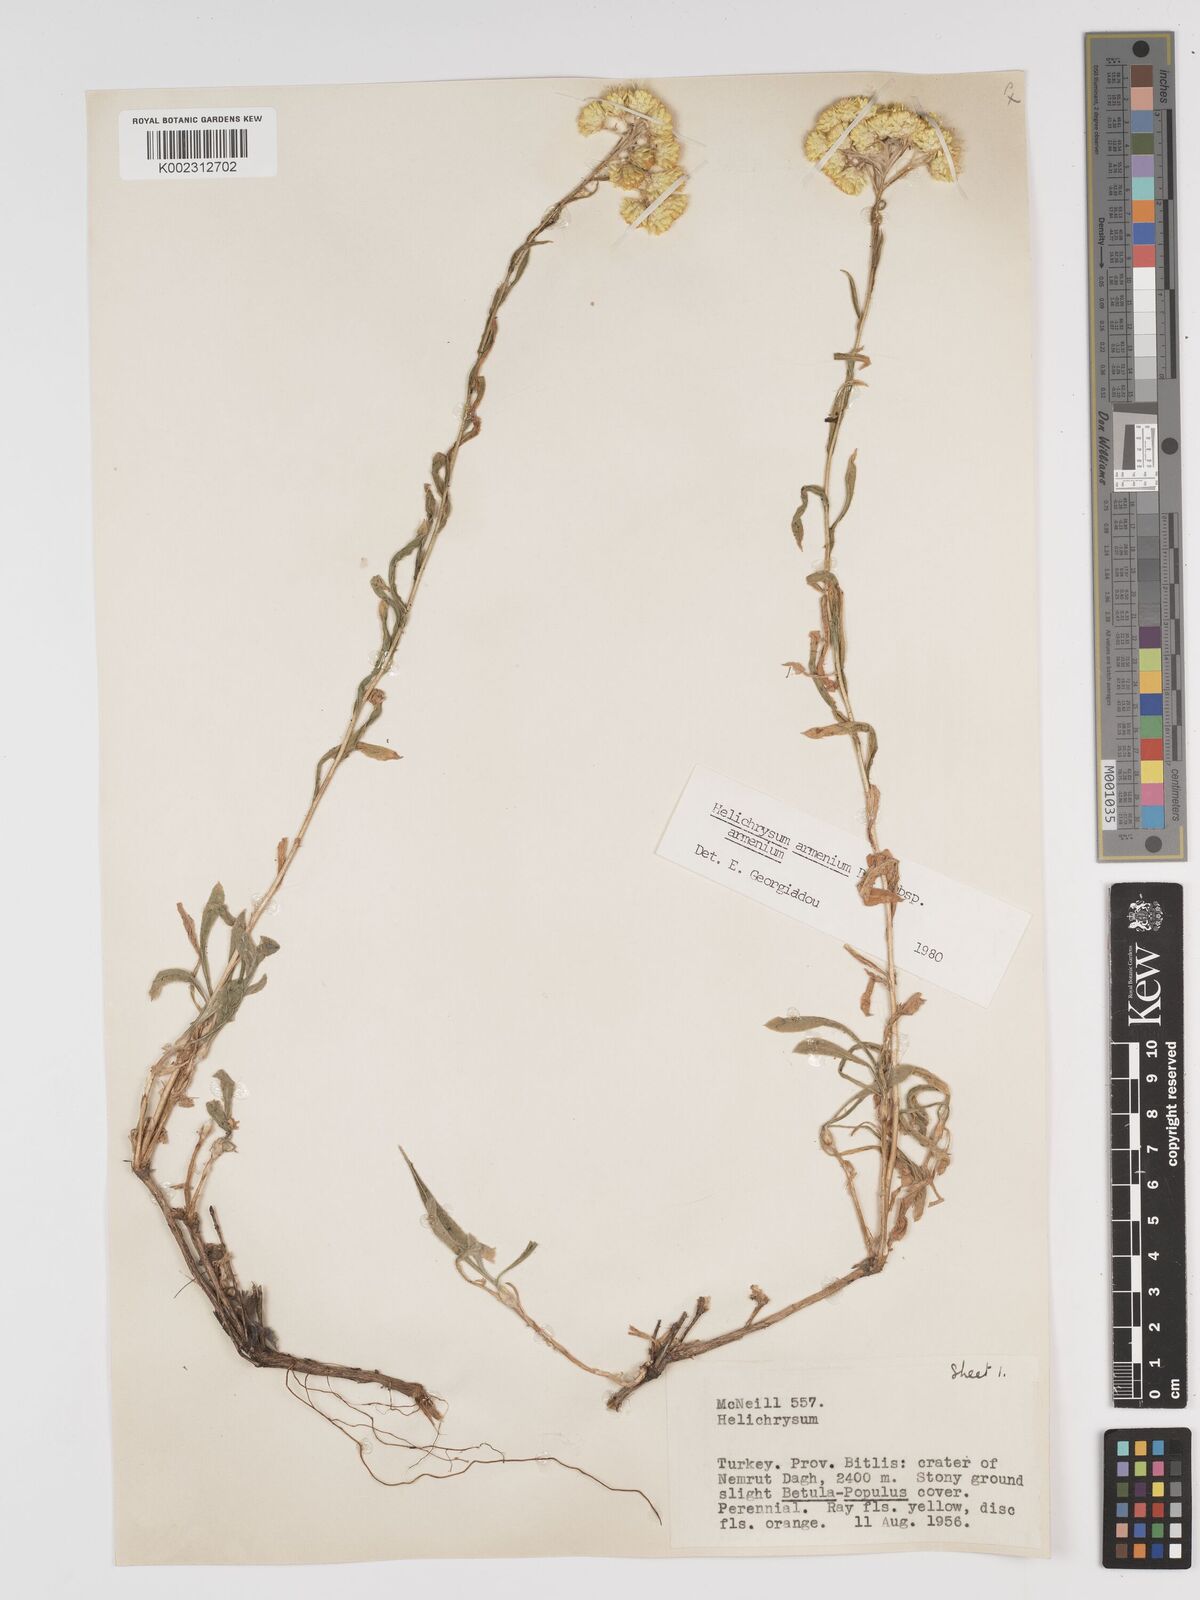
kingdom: Plantae
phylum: Tracheophyta
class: Magnoliopsida
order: Asterales
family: Asteraceae
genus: Helichrysum
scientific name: Helichrysum armenium
